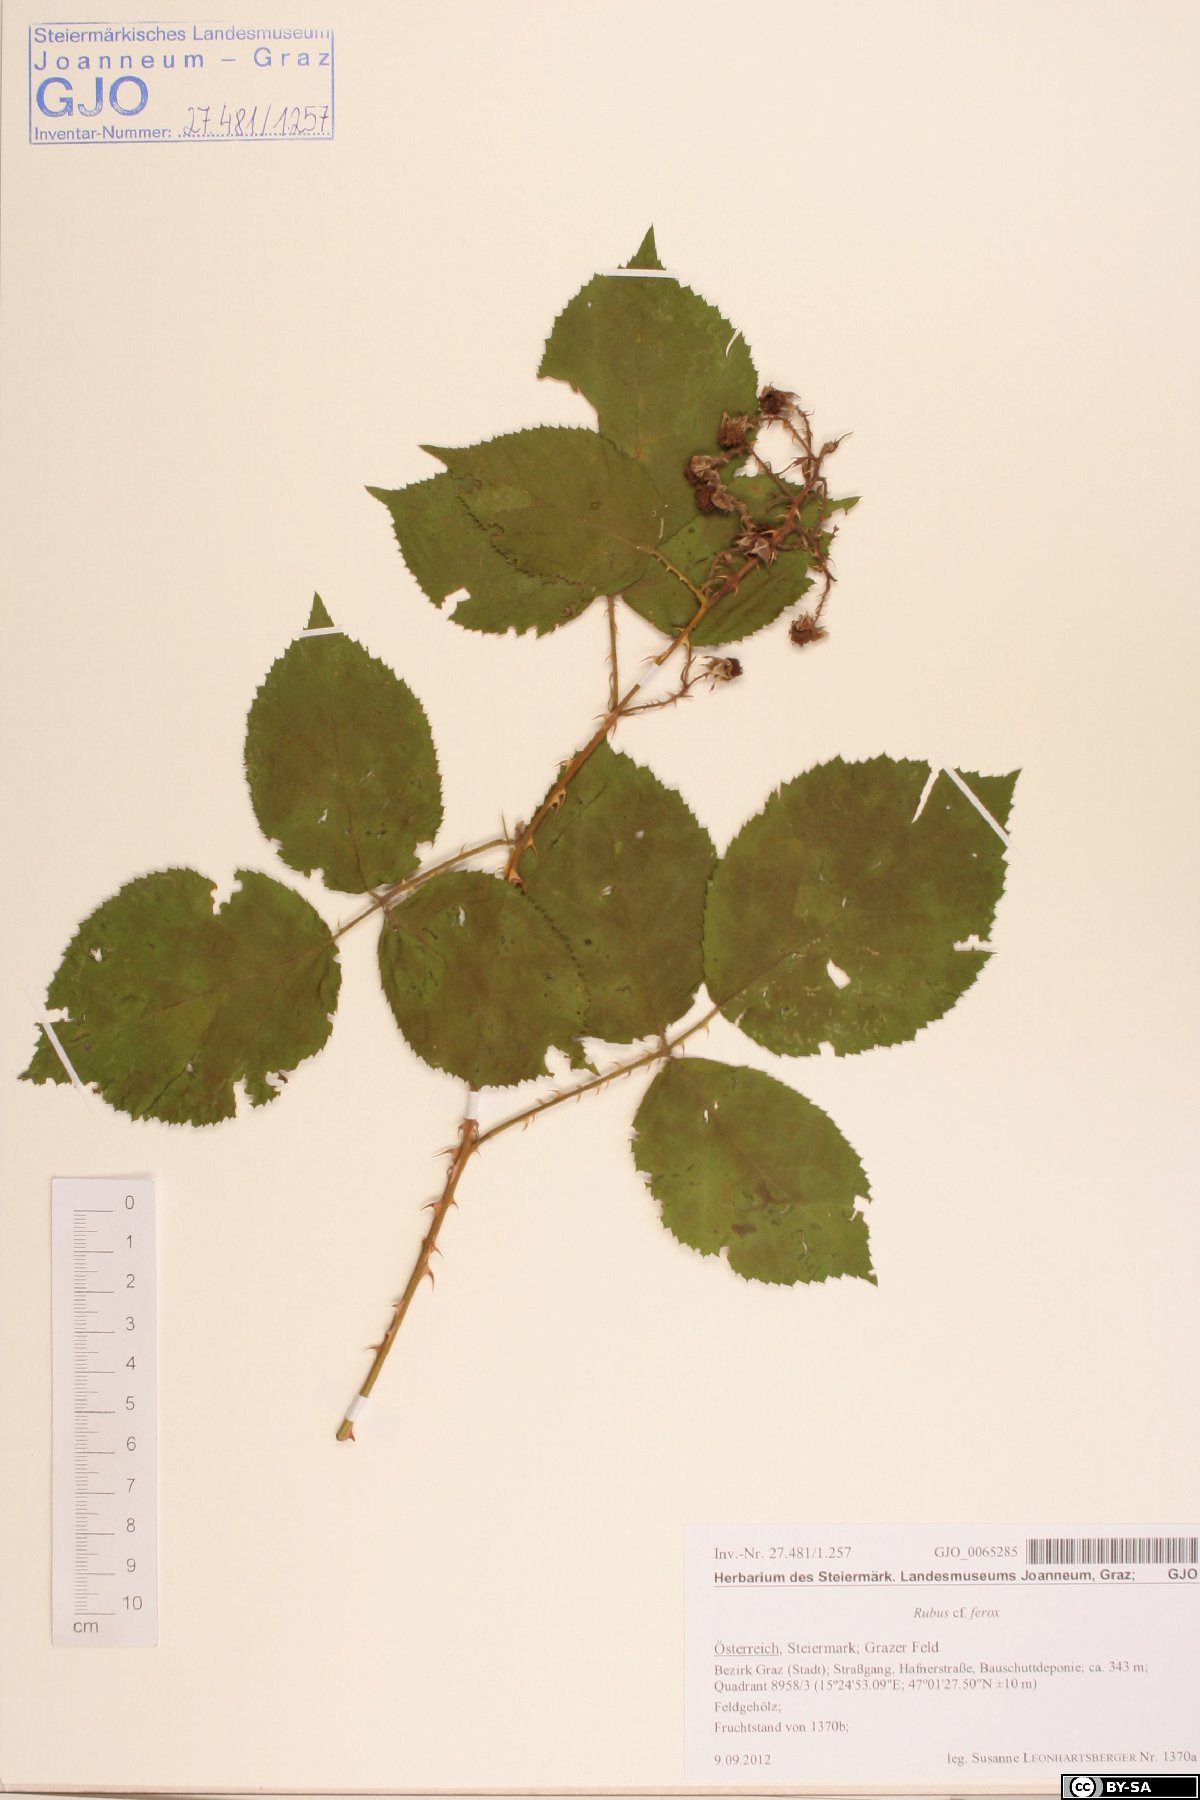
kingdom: Plantae
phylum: Tracheophyta
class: Magnoliopsida
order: Rosales
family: Rosaceae
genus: Rubus
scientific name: Rubus ferox
